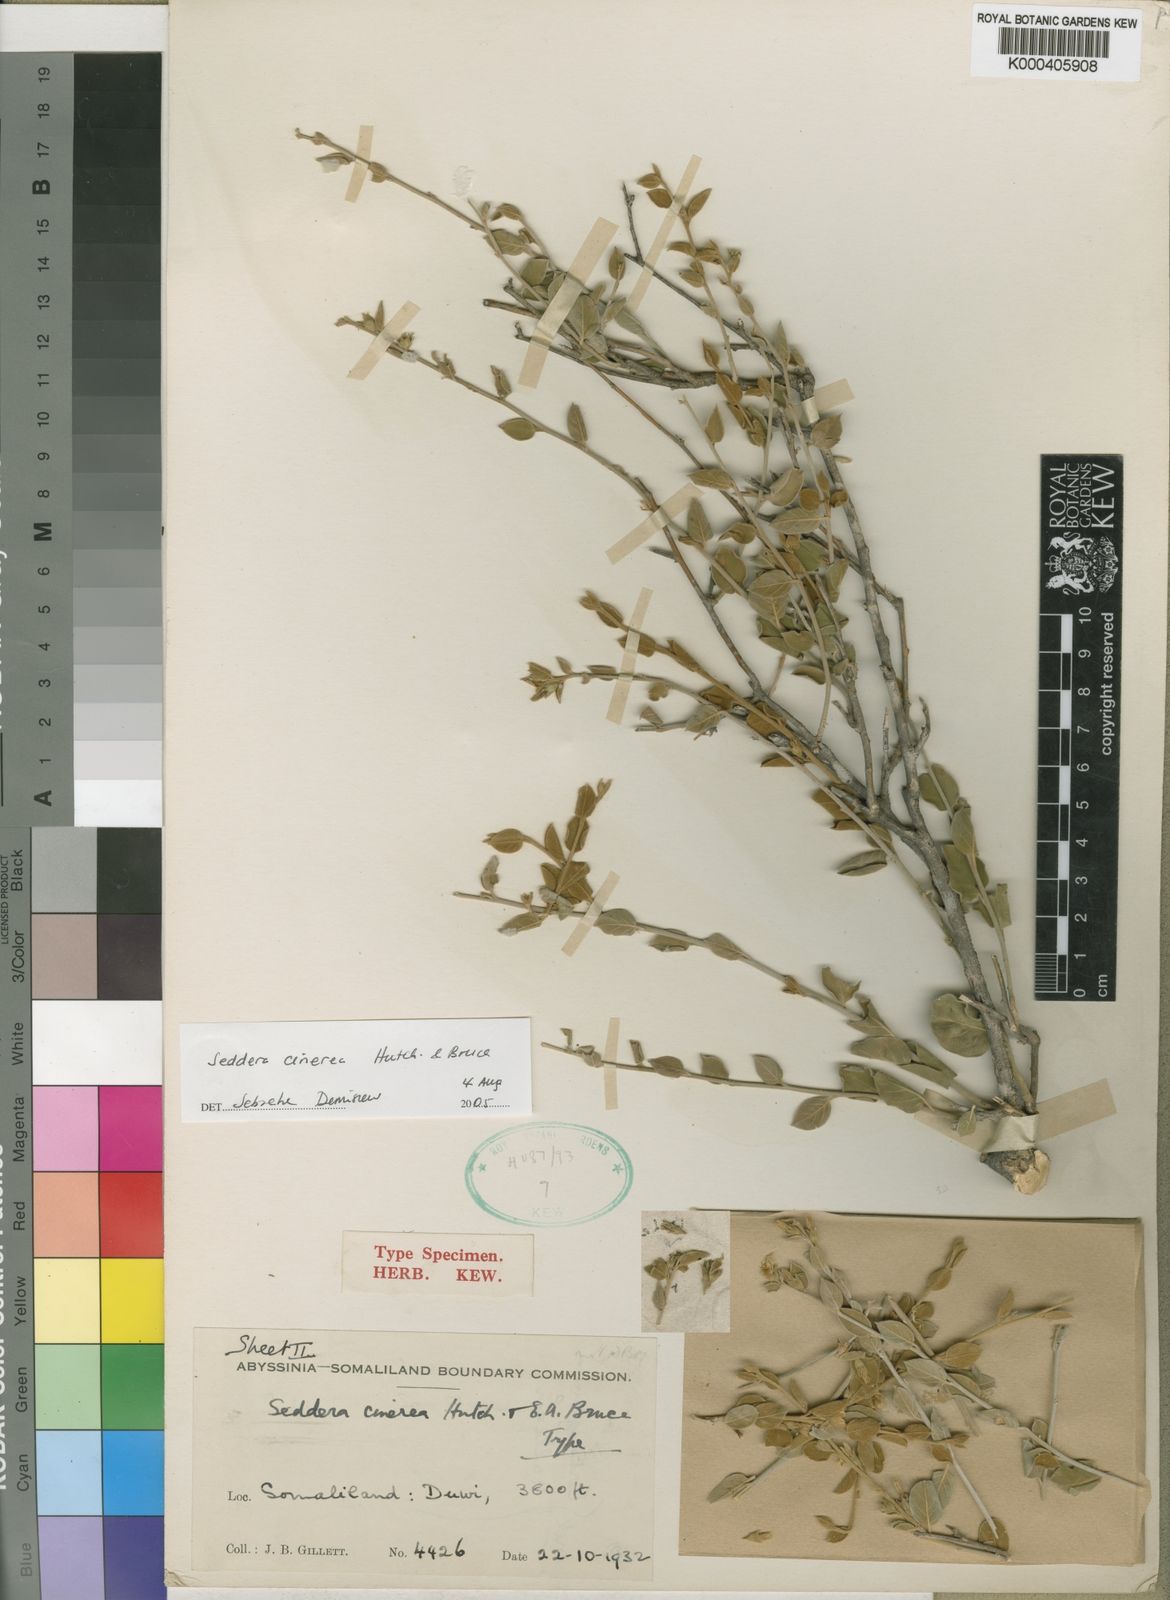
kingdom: Plantae
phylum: Tracheophyta
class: Magnoliopsida
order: Solanales
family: Convolvulaceae
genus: Seddera
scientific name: Seddera cinerea
